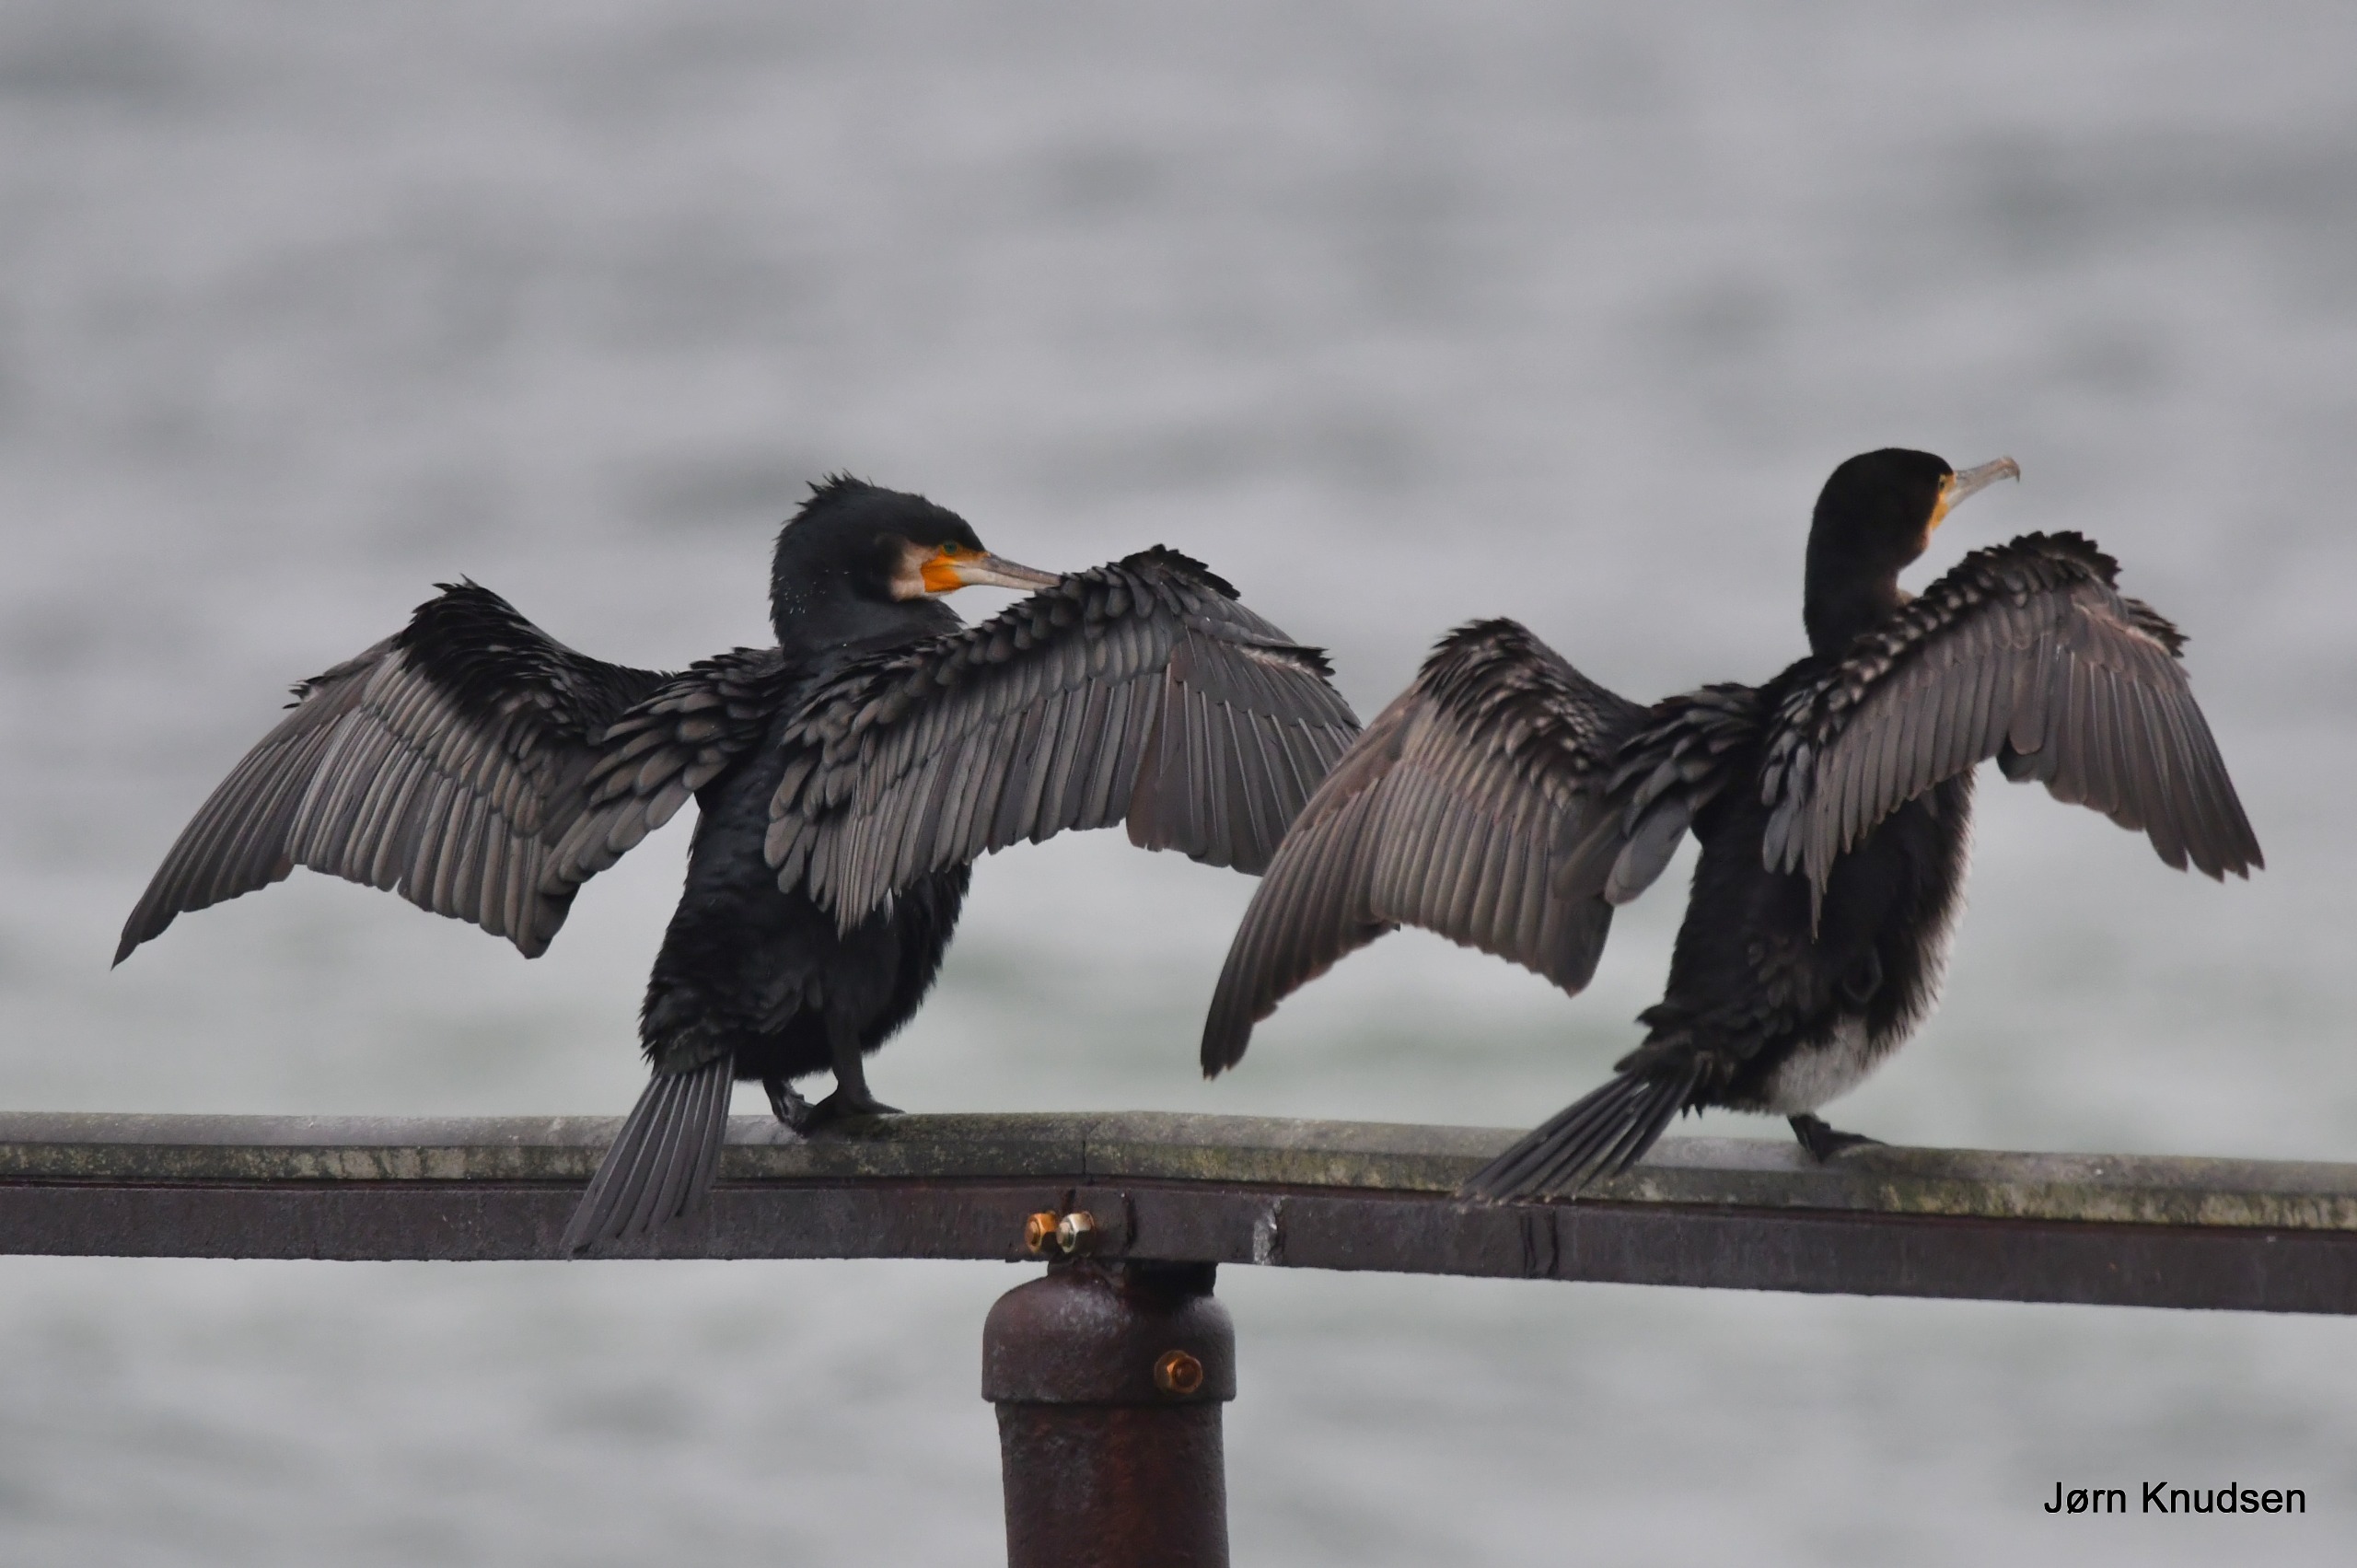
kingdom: Animalia
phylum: Chordata
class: Aves
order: Suliformes
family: Phalacrocoracidae
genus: Phalacrocorax
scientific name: Phalacrocorax carbo
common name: Skarv
